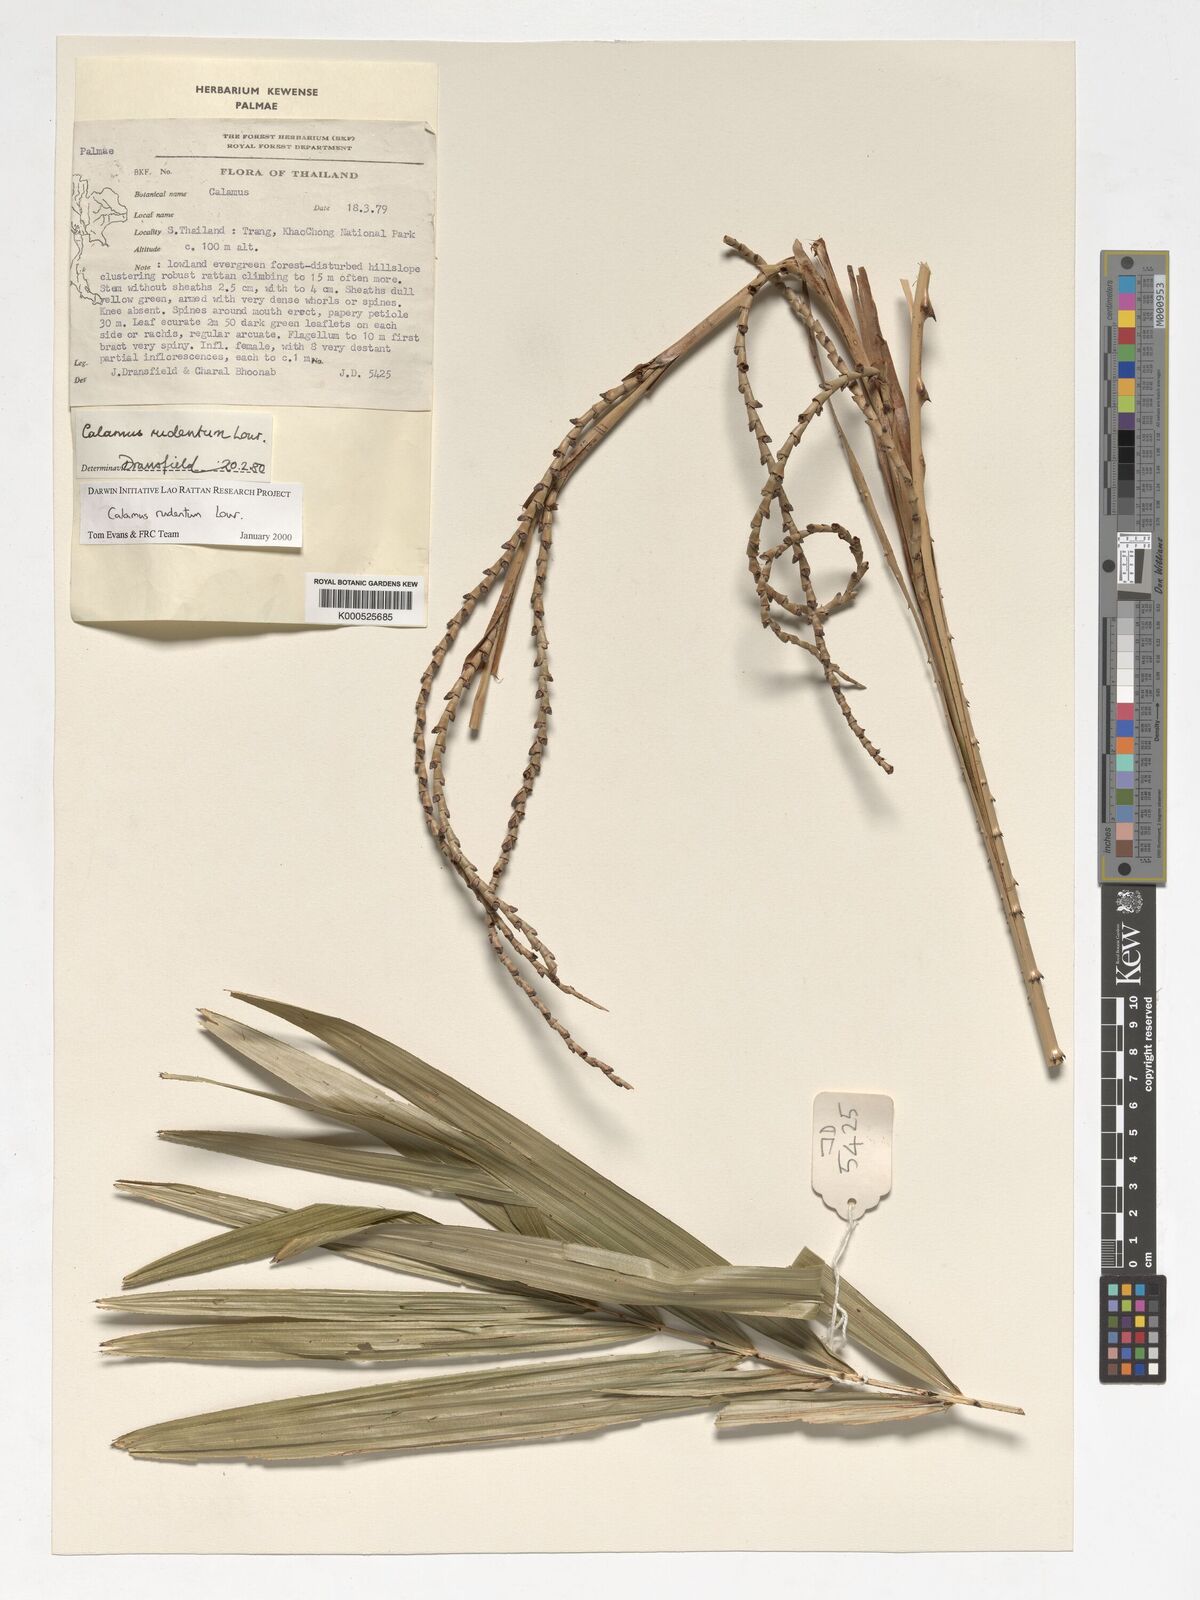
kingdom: Plantae
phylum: Tracheophyta
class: Liliopsida
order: Arecales
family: Arecaceae
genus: Calamus
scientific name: Calamus rudentum
